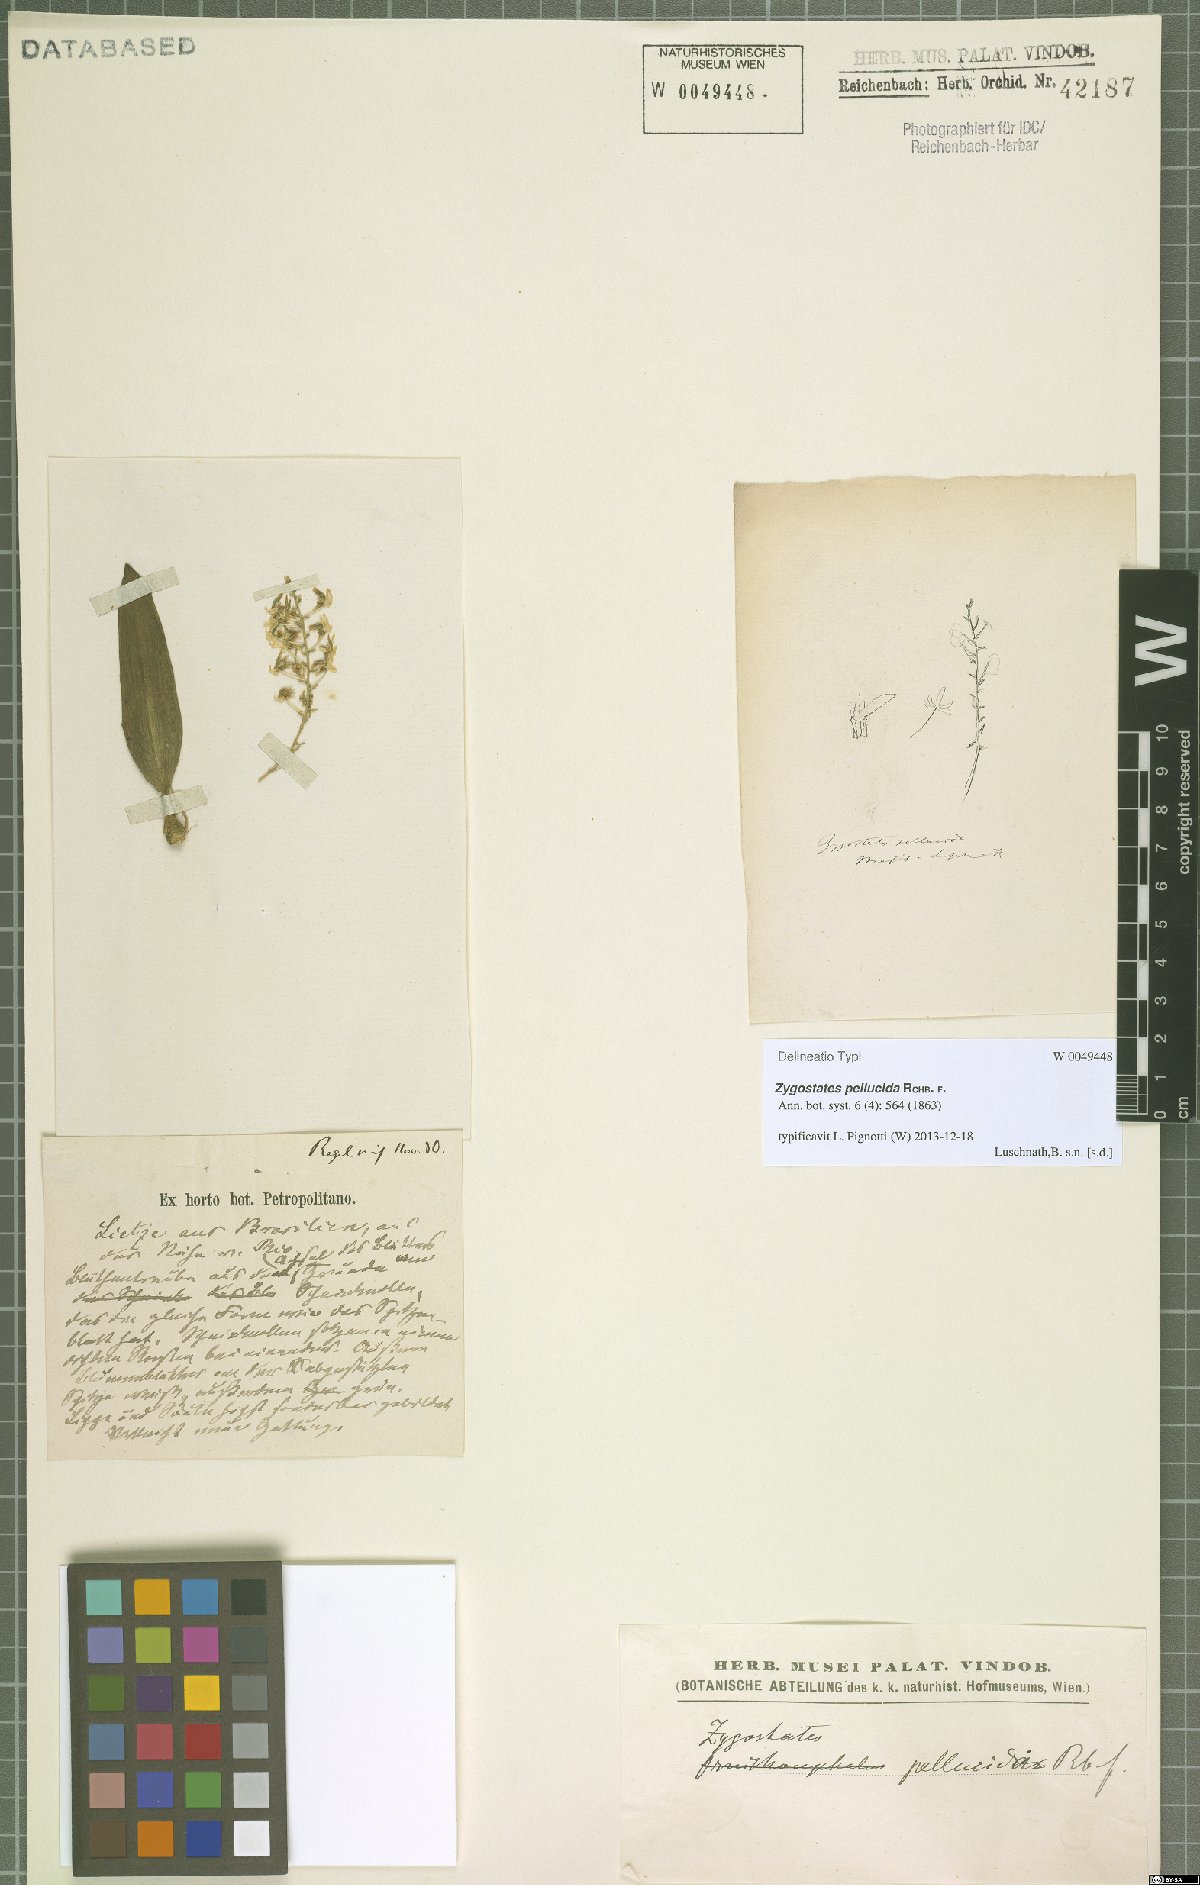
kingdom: Plantae
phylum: Tracheophyta
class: Liliopsida
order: Asparagales
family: Orchidaceae
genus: Zygostates
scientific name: Zygostates pellucida
